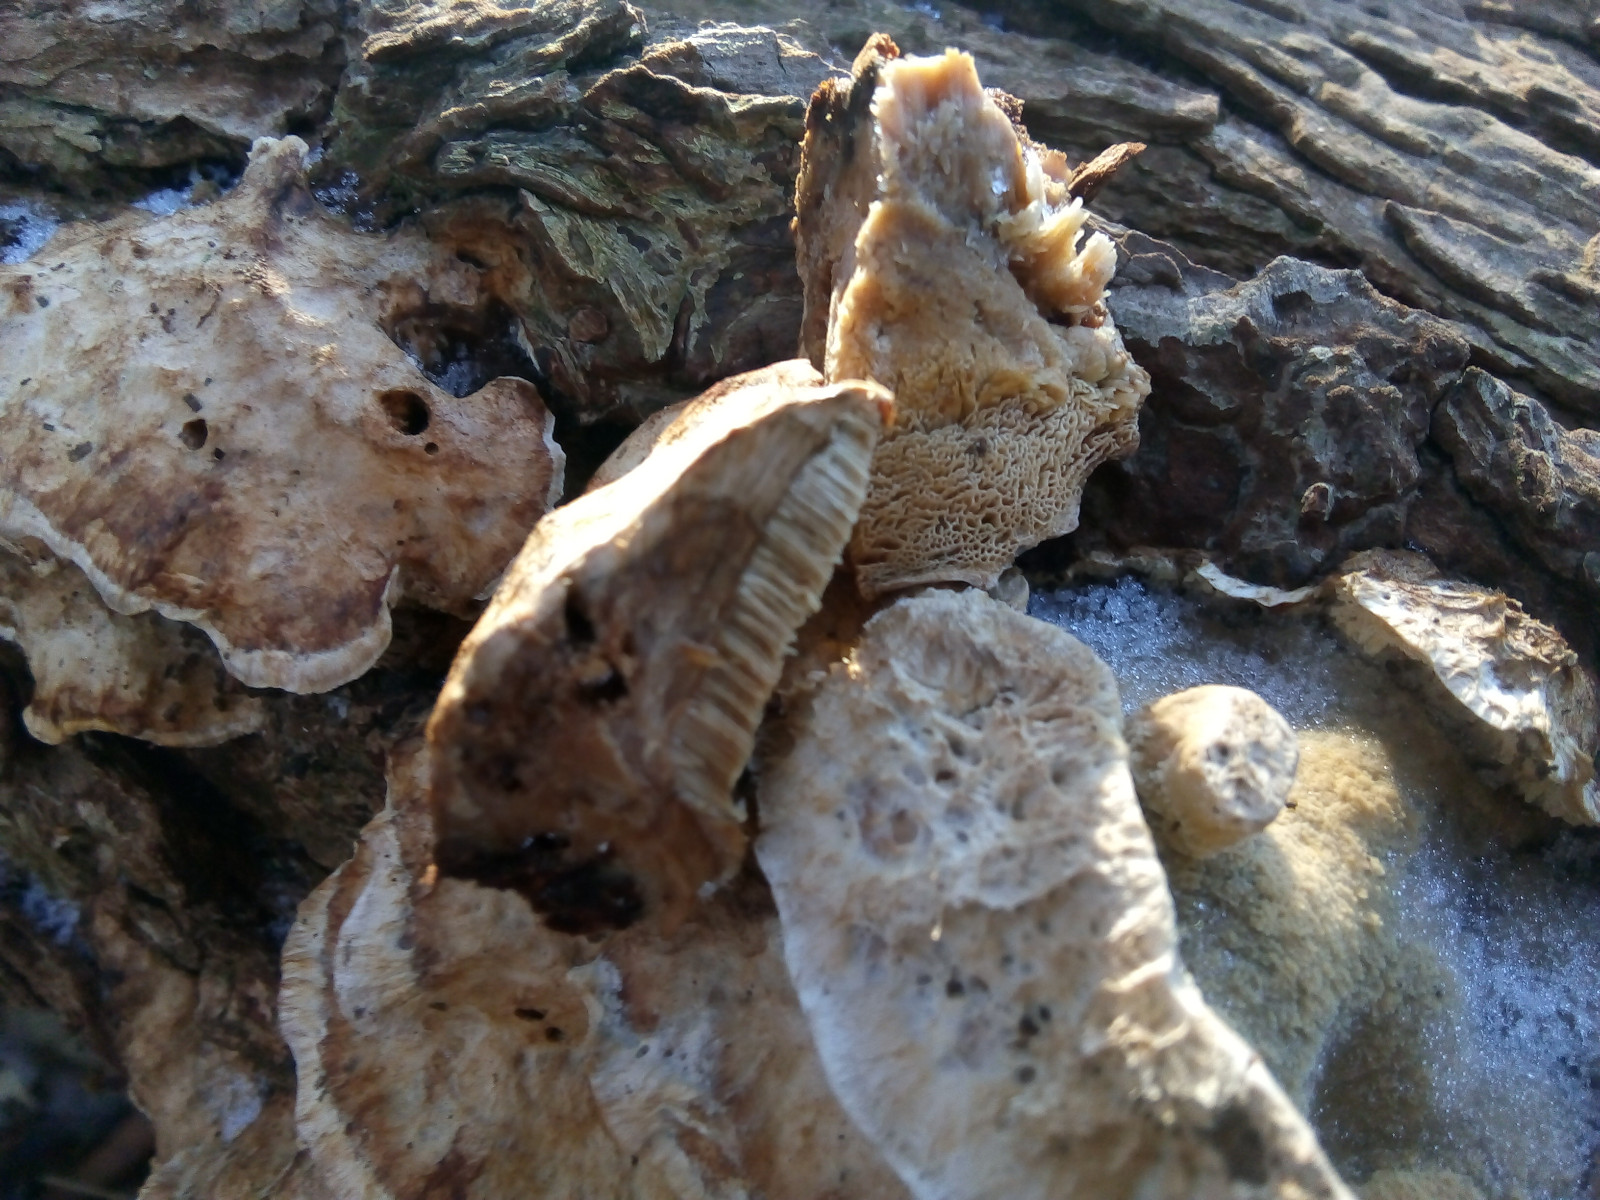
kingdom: Fungi
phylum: Basidiomycota
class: Agaricomycetes
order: Polyporales
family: Phanerochaetaceae
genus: Bjerkandera
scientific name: Bjerkandera fumosa
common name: grågul sodporesvamp
